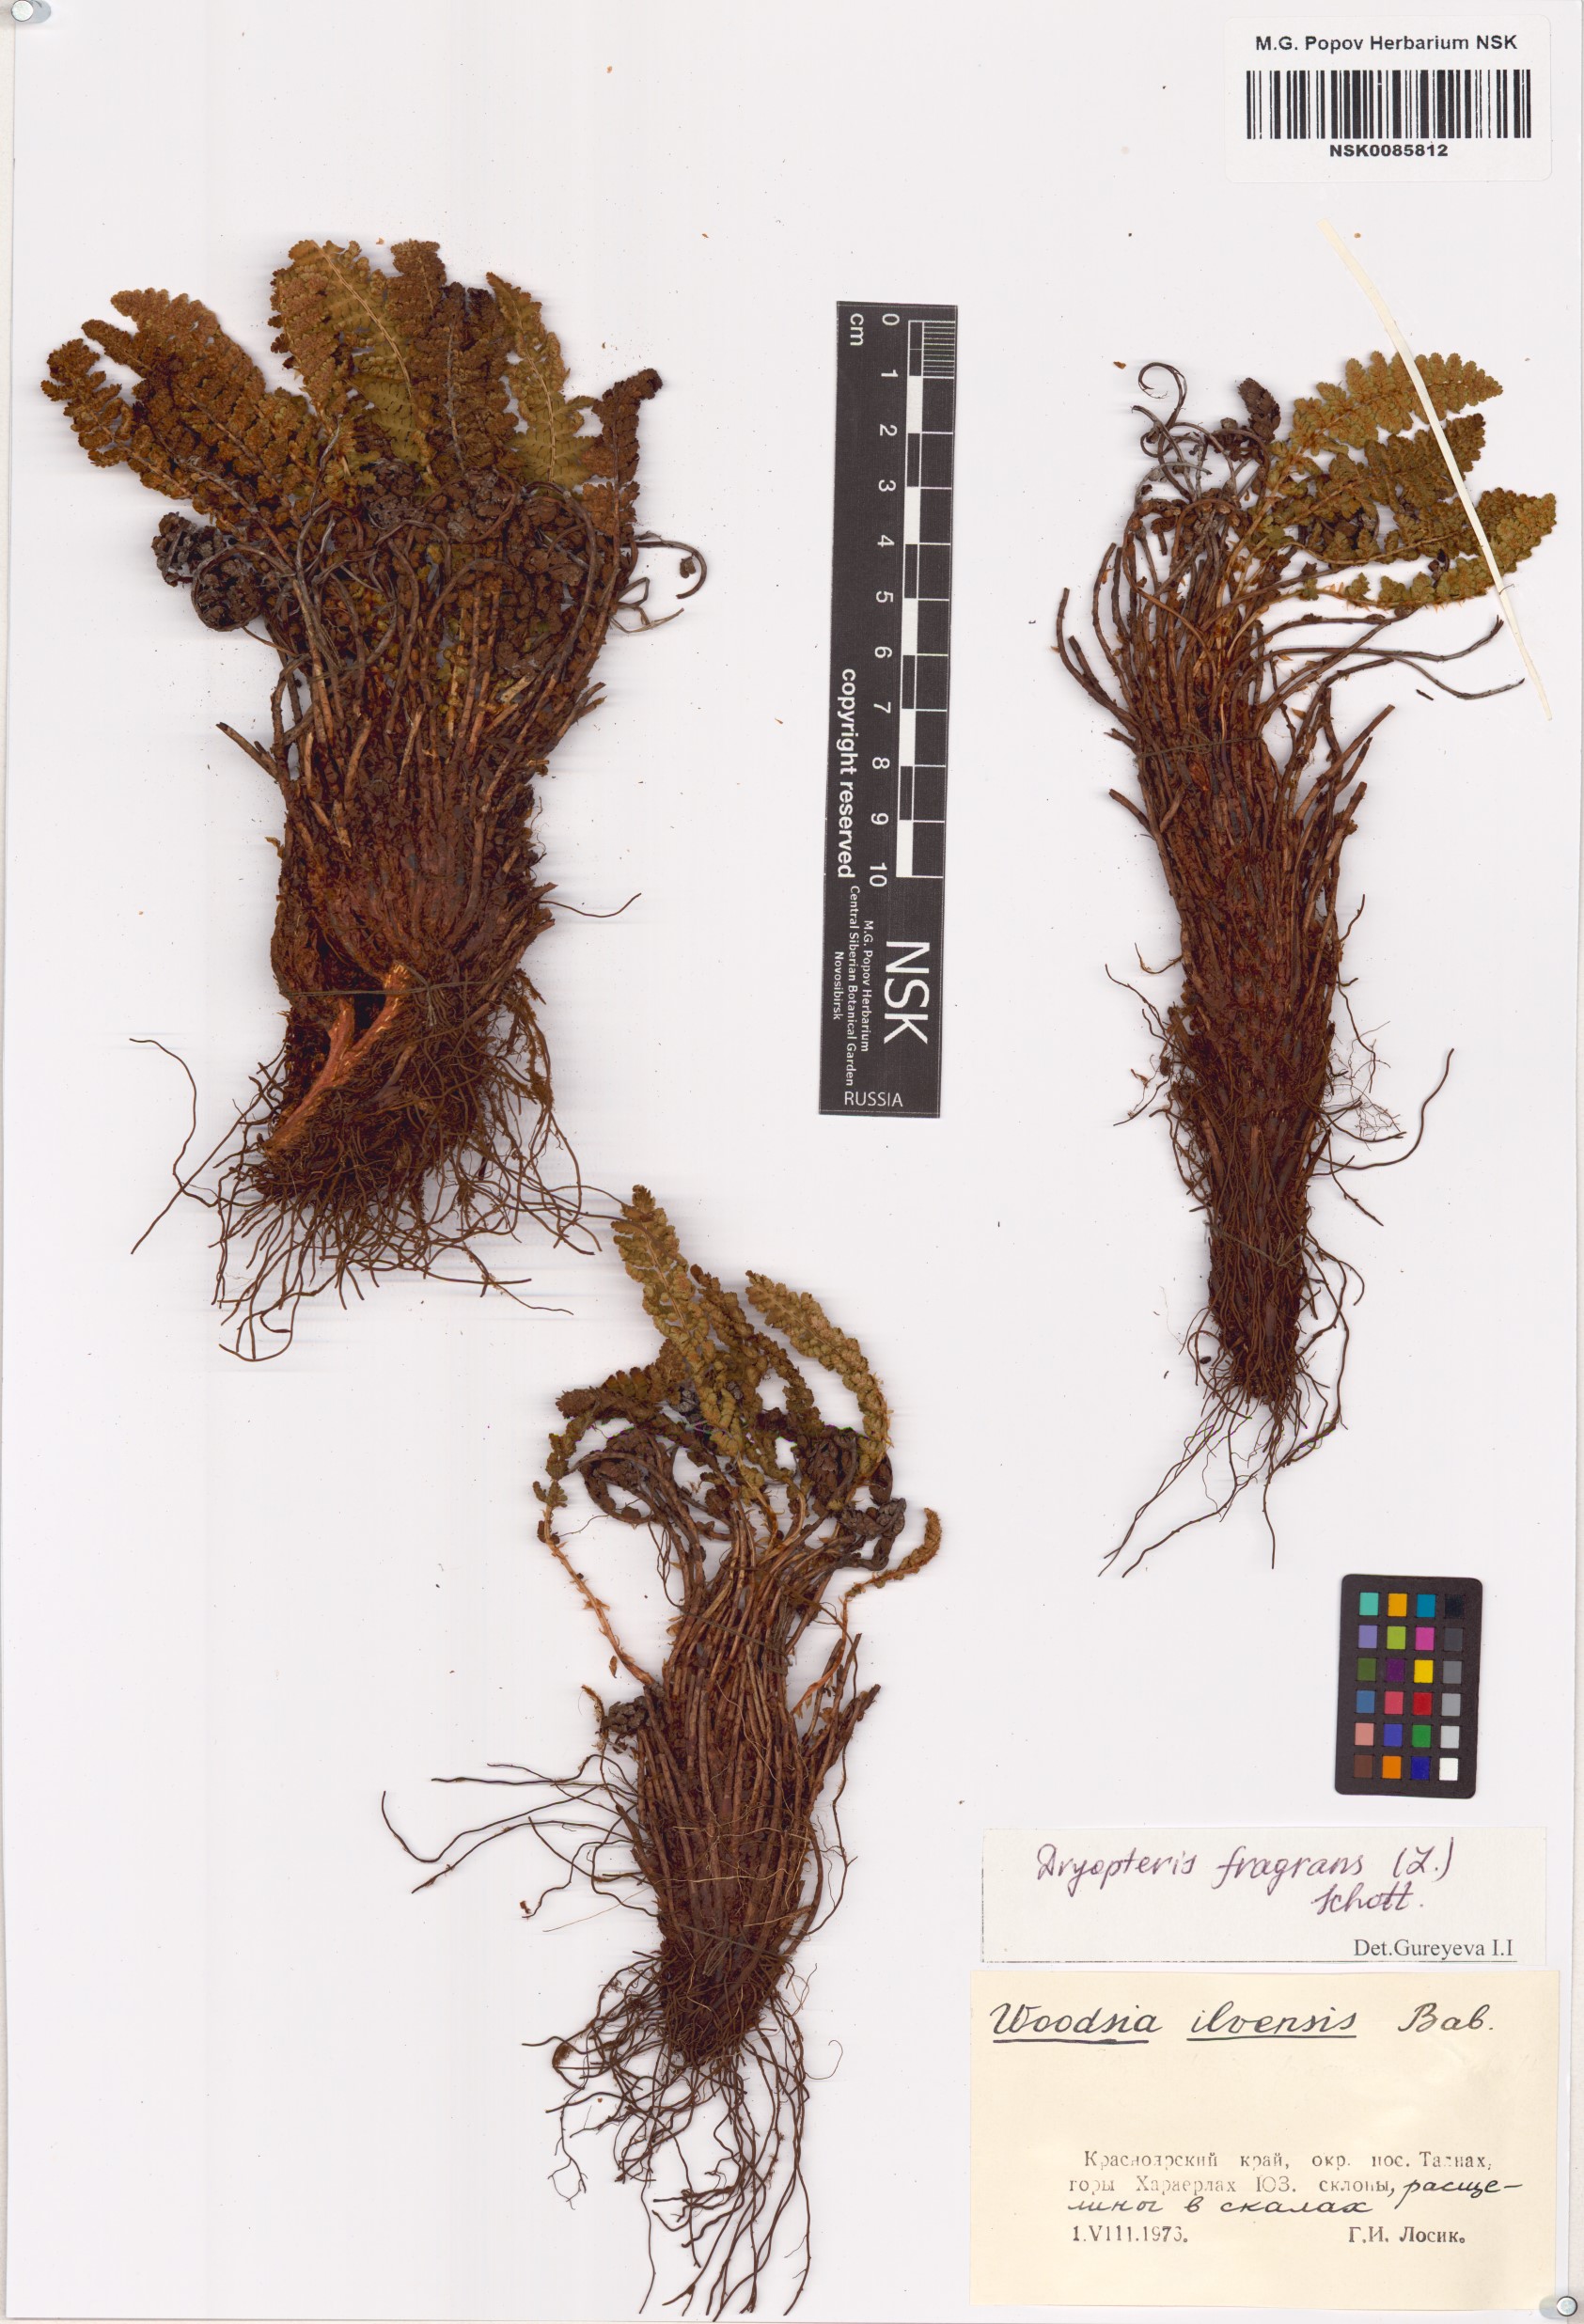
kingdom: Plantae
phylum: Tracheophyta
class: Polypodiopsida
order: Polypodiales
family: Dryopteridaceae
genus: Dryopteris
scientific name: Dryopteris fragrans
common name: Fragrant wood fern
